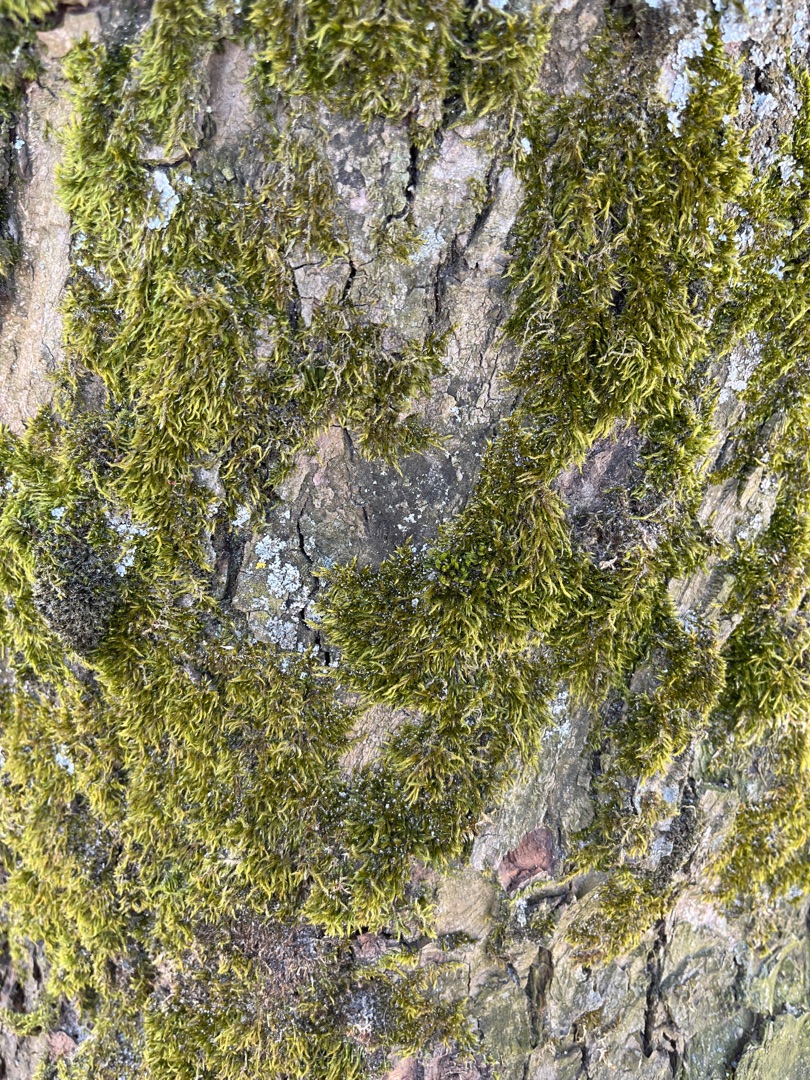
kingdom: Plantae
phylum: Bryophyta
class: Bryopsida
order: Hypnales
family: Hypnaceae
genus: Hypnum
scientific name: Hypnum
